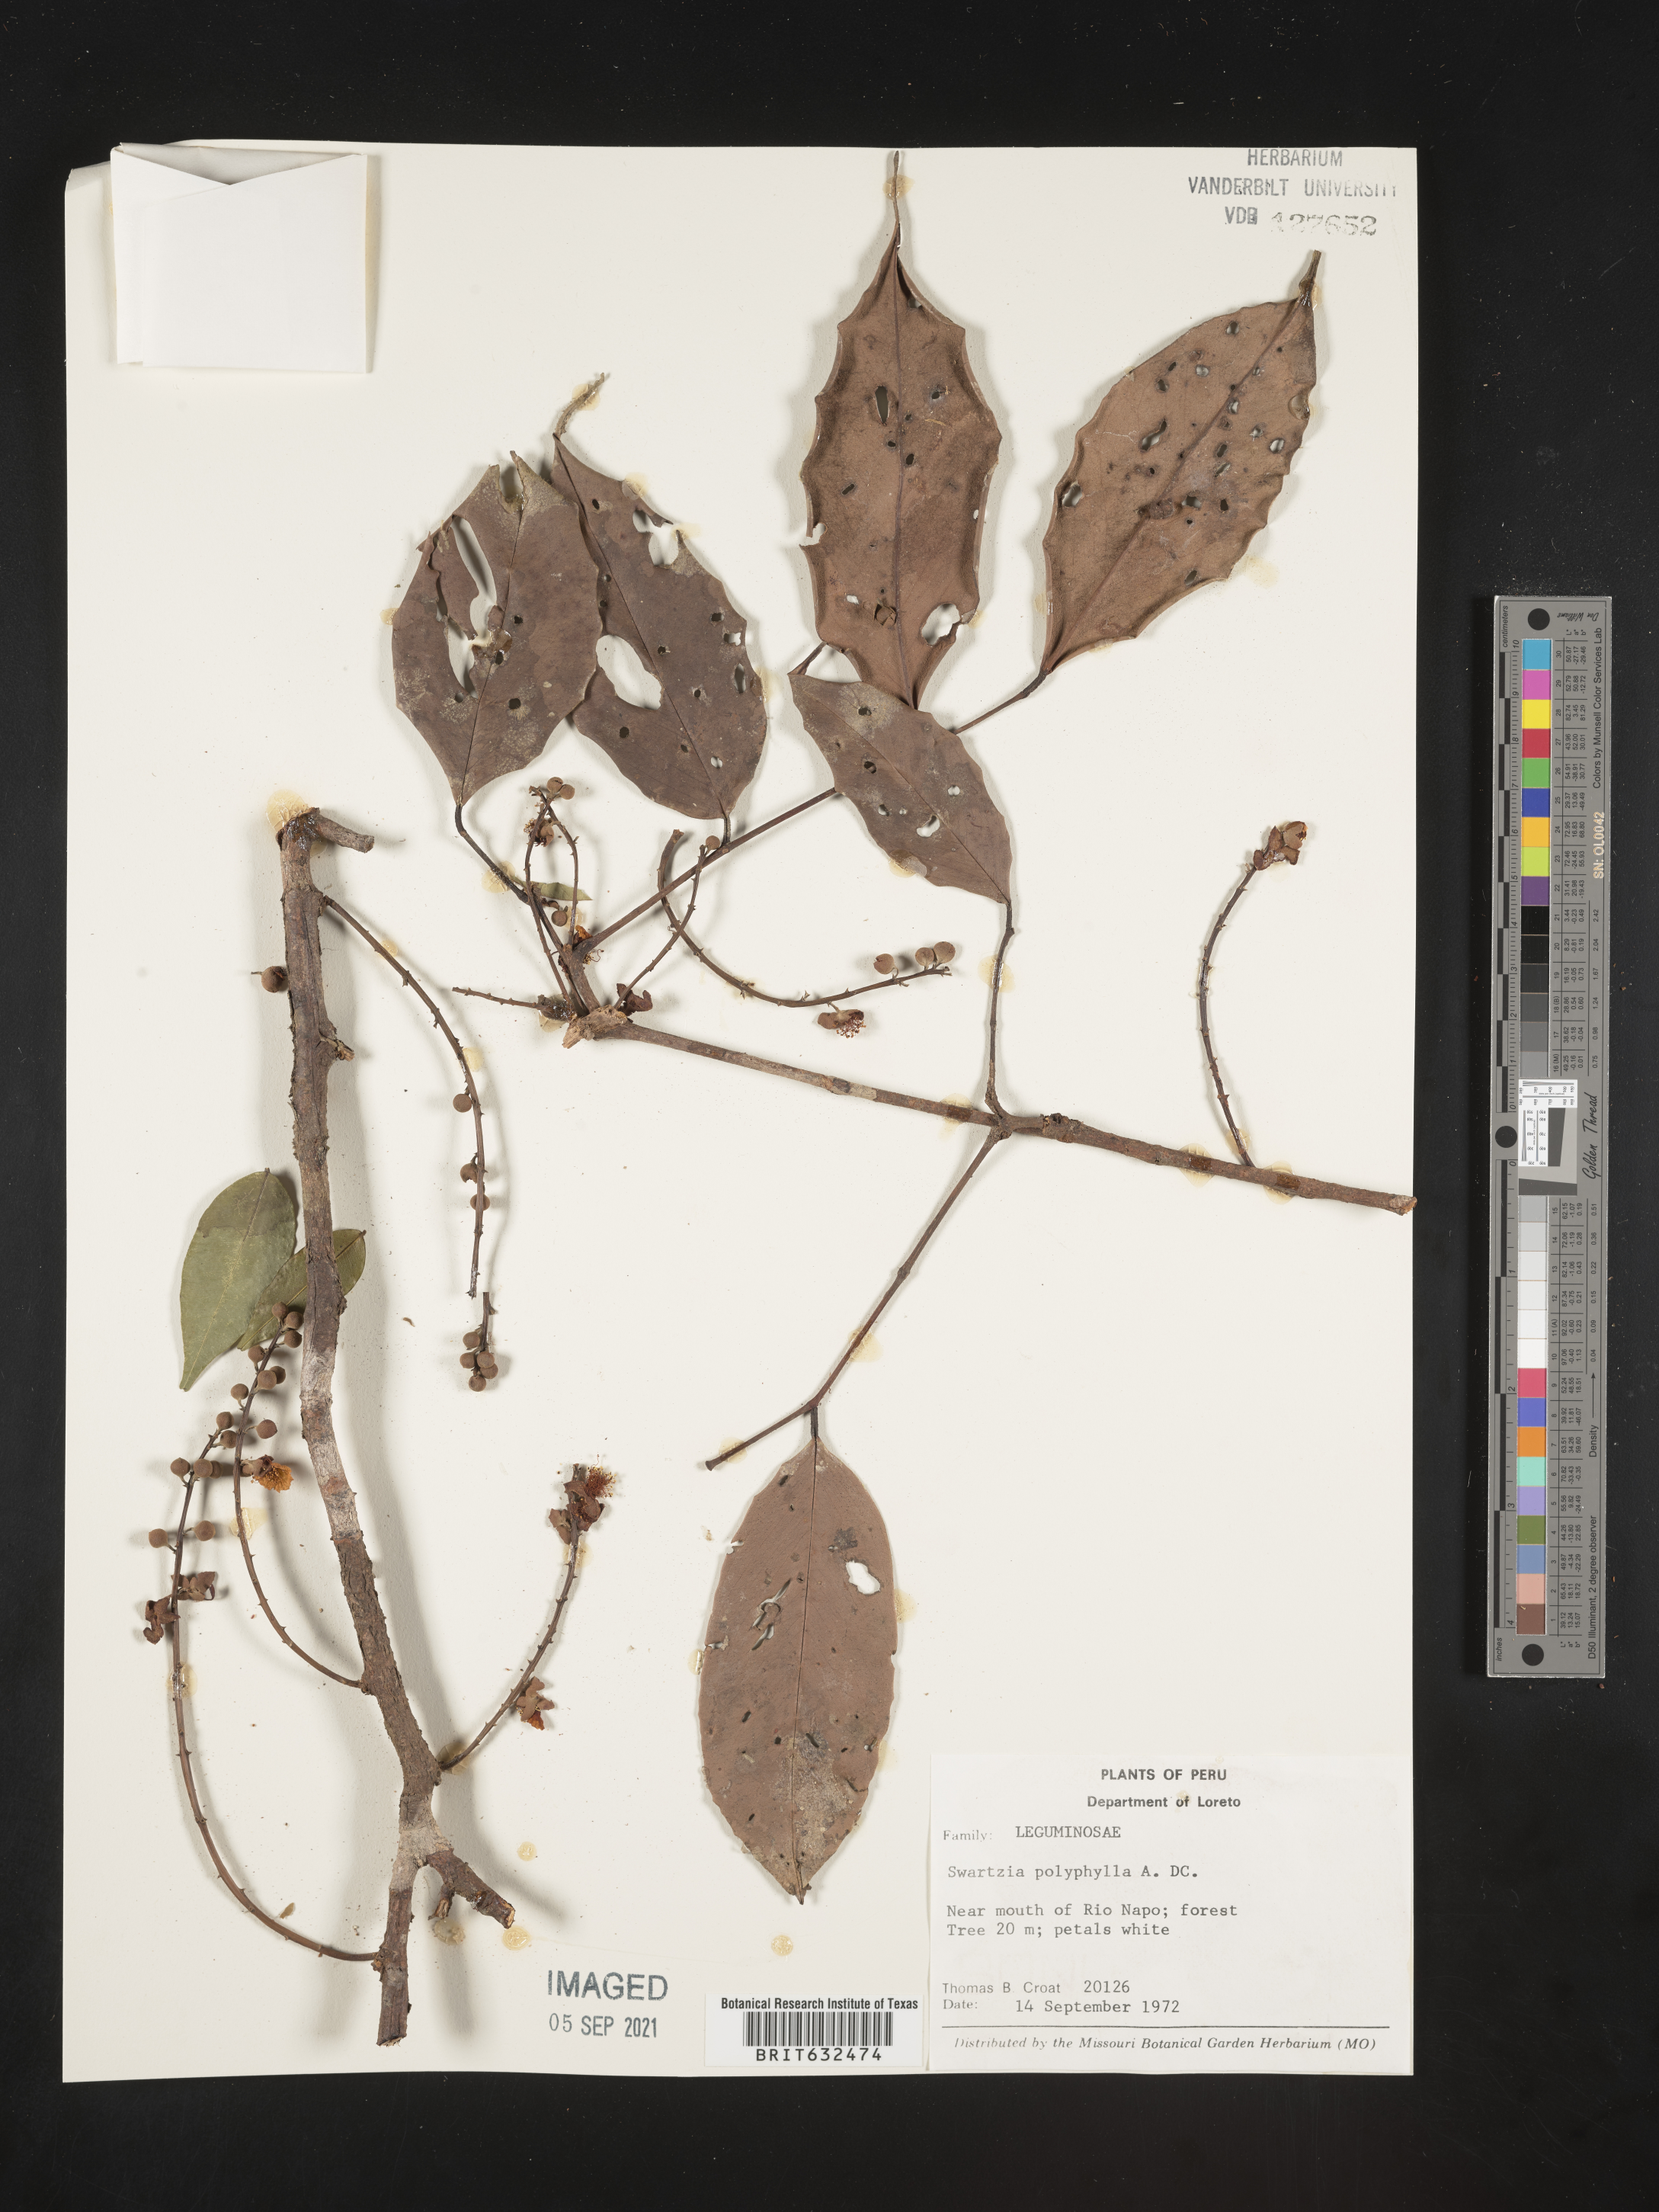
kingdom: Plantae
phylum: Tracheophyta
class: Magnoliopsida
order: Fabales
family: Fabaceae
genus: Swartzia
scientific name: Swartzia
